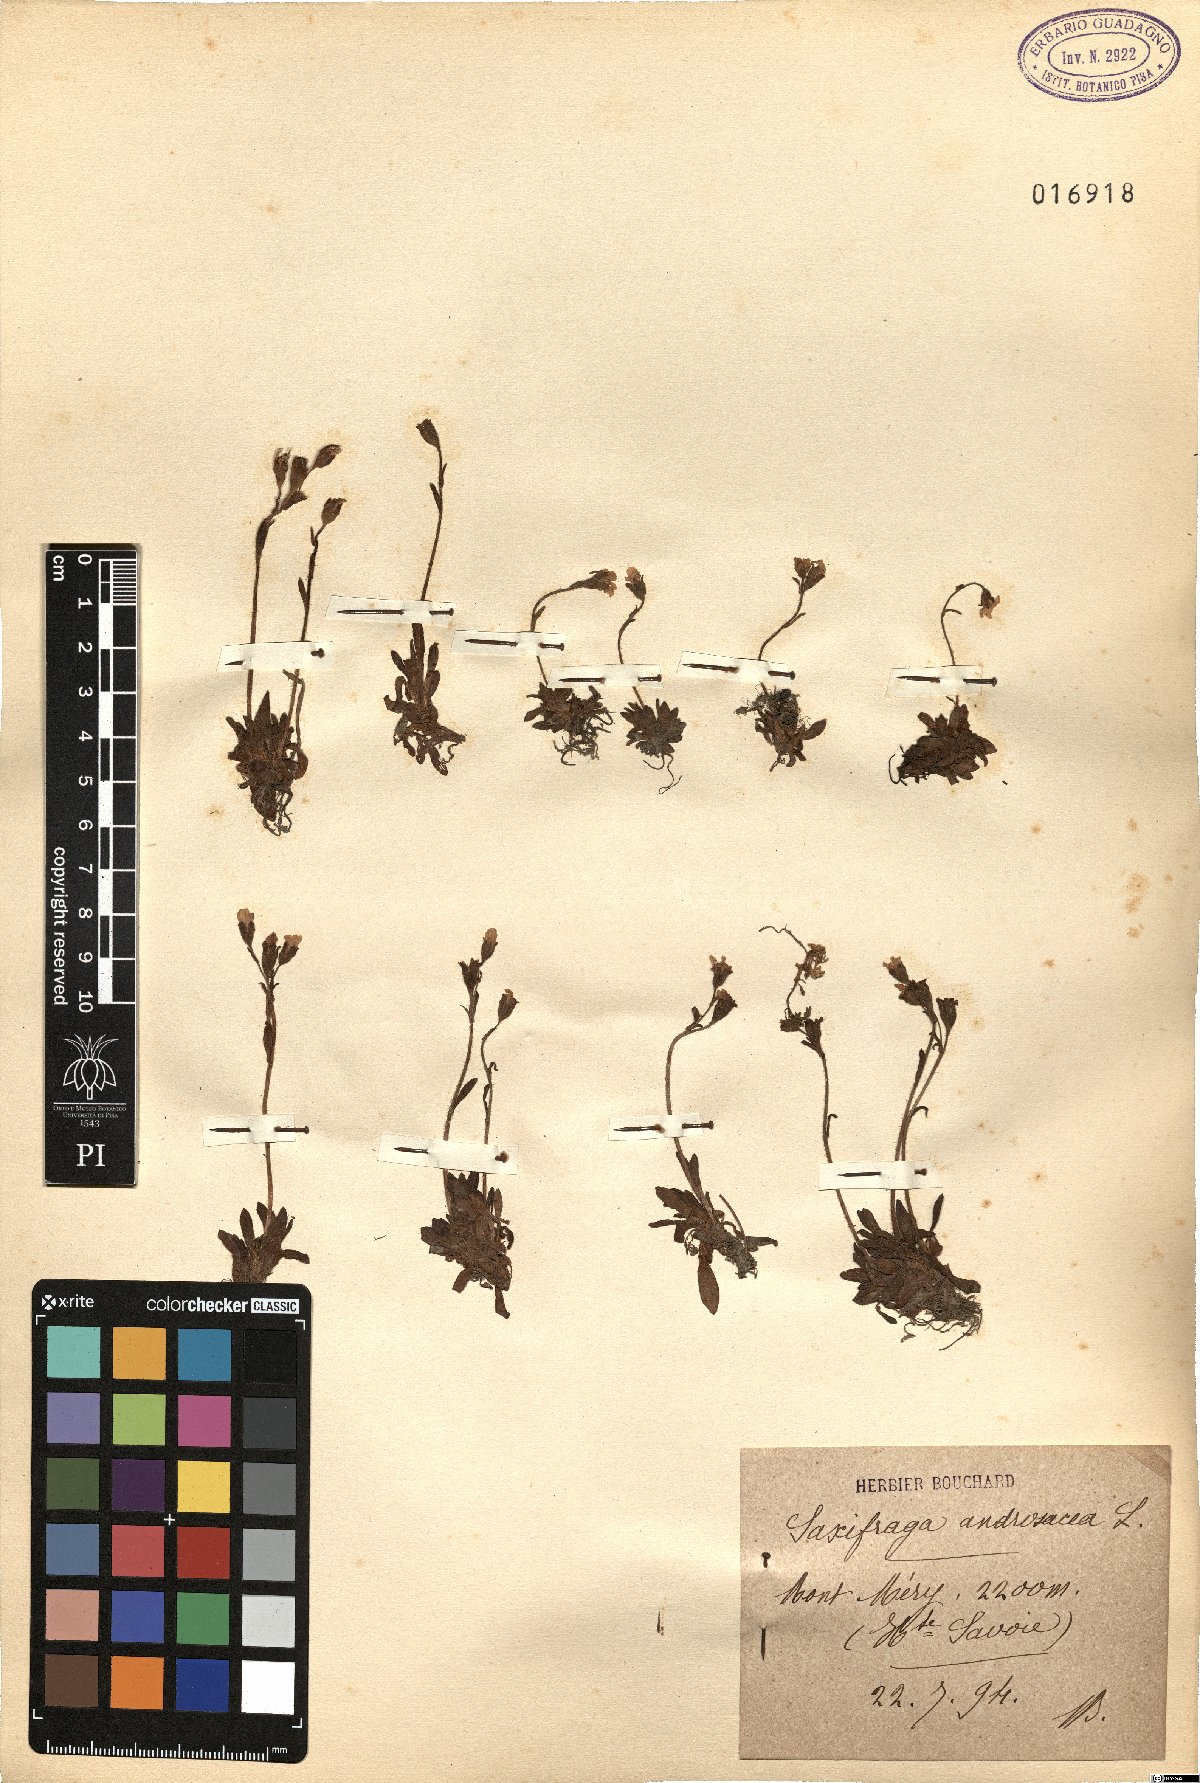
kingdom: Plantae
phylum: Tracheophyta
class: Magnoliopsida
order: Saxifragales
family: Saxifragaceae
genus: Saxifraga
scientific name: Saxifraga androsacea
